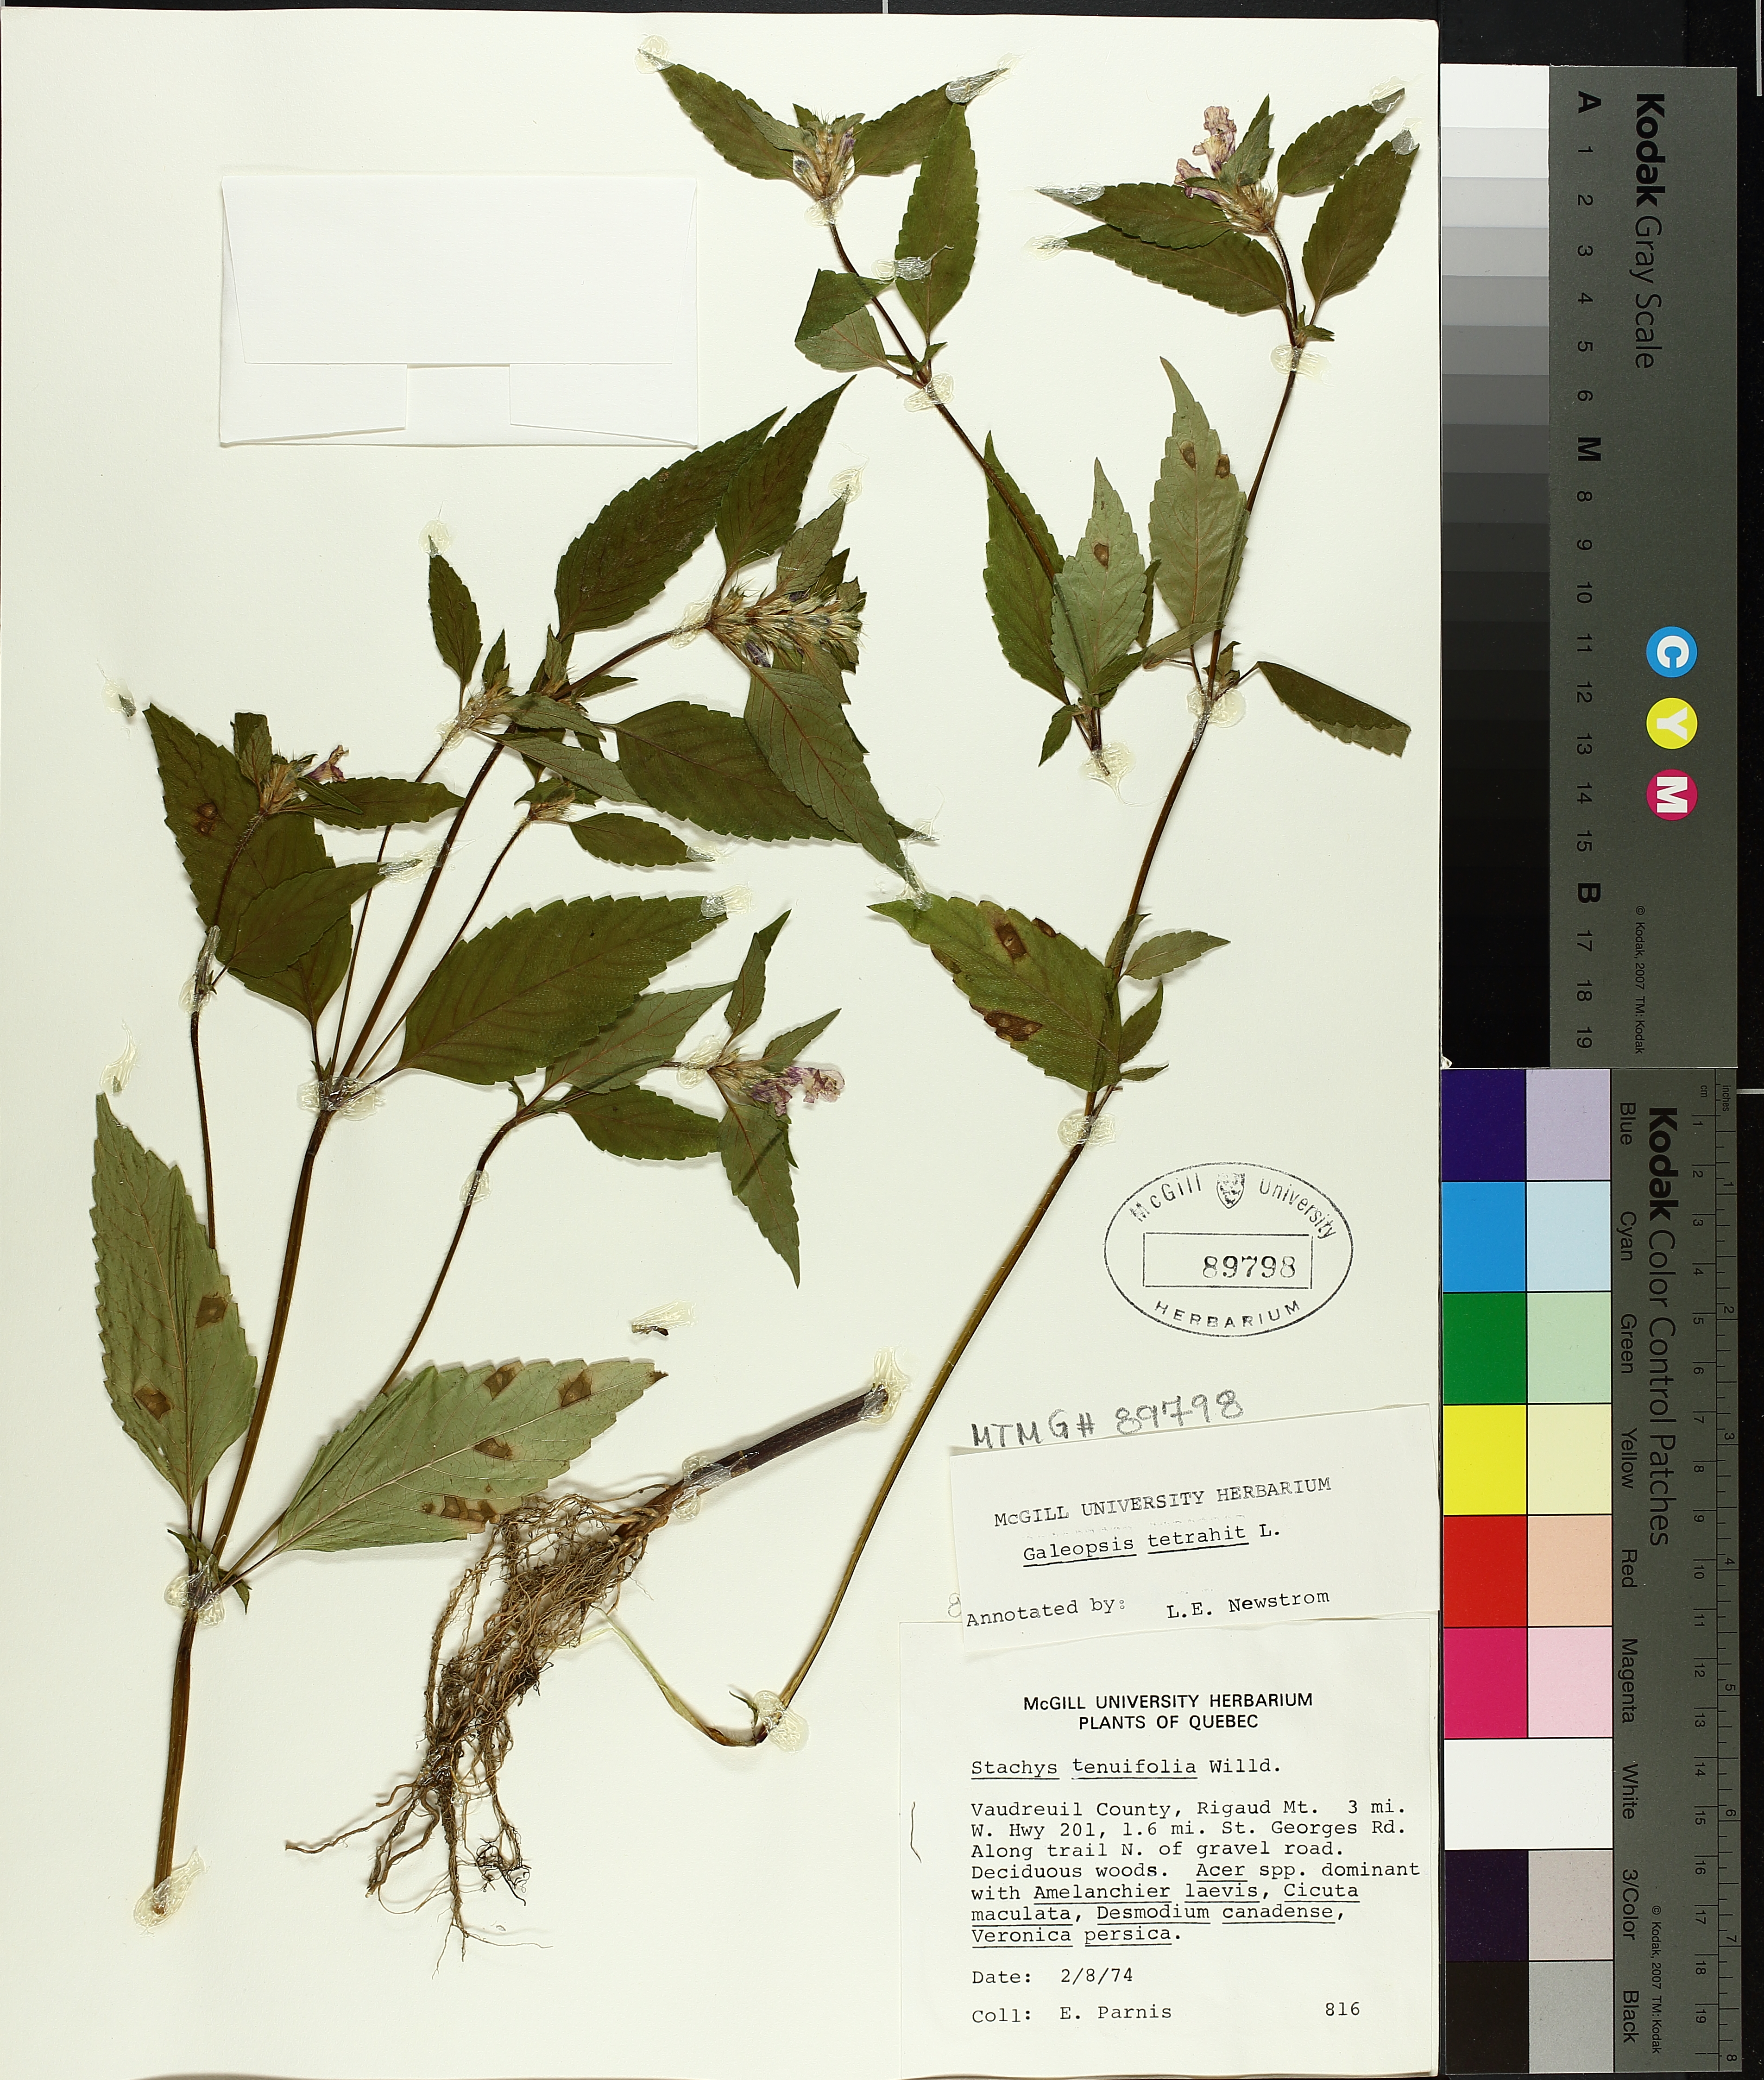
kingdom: Plantae
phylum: Tracheophyta
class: Magnoliopsida
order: Lamiales
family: Lamiaceae
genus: Galeopsis
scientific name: Galeopsis tetrahit
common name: Common hemp-nettle
